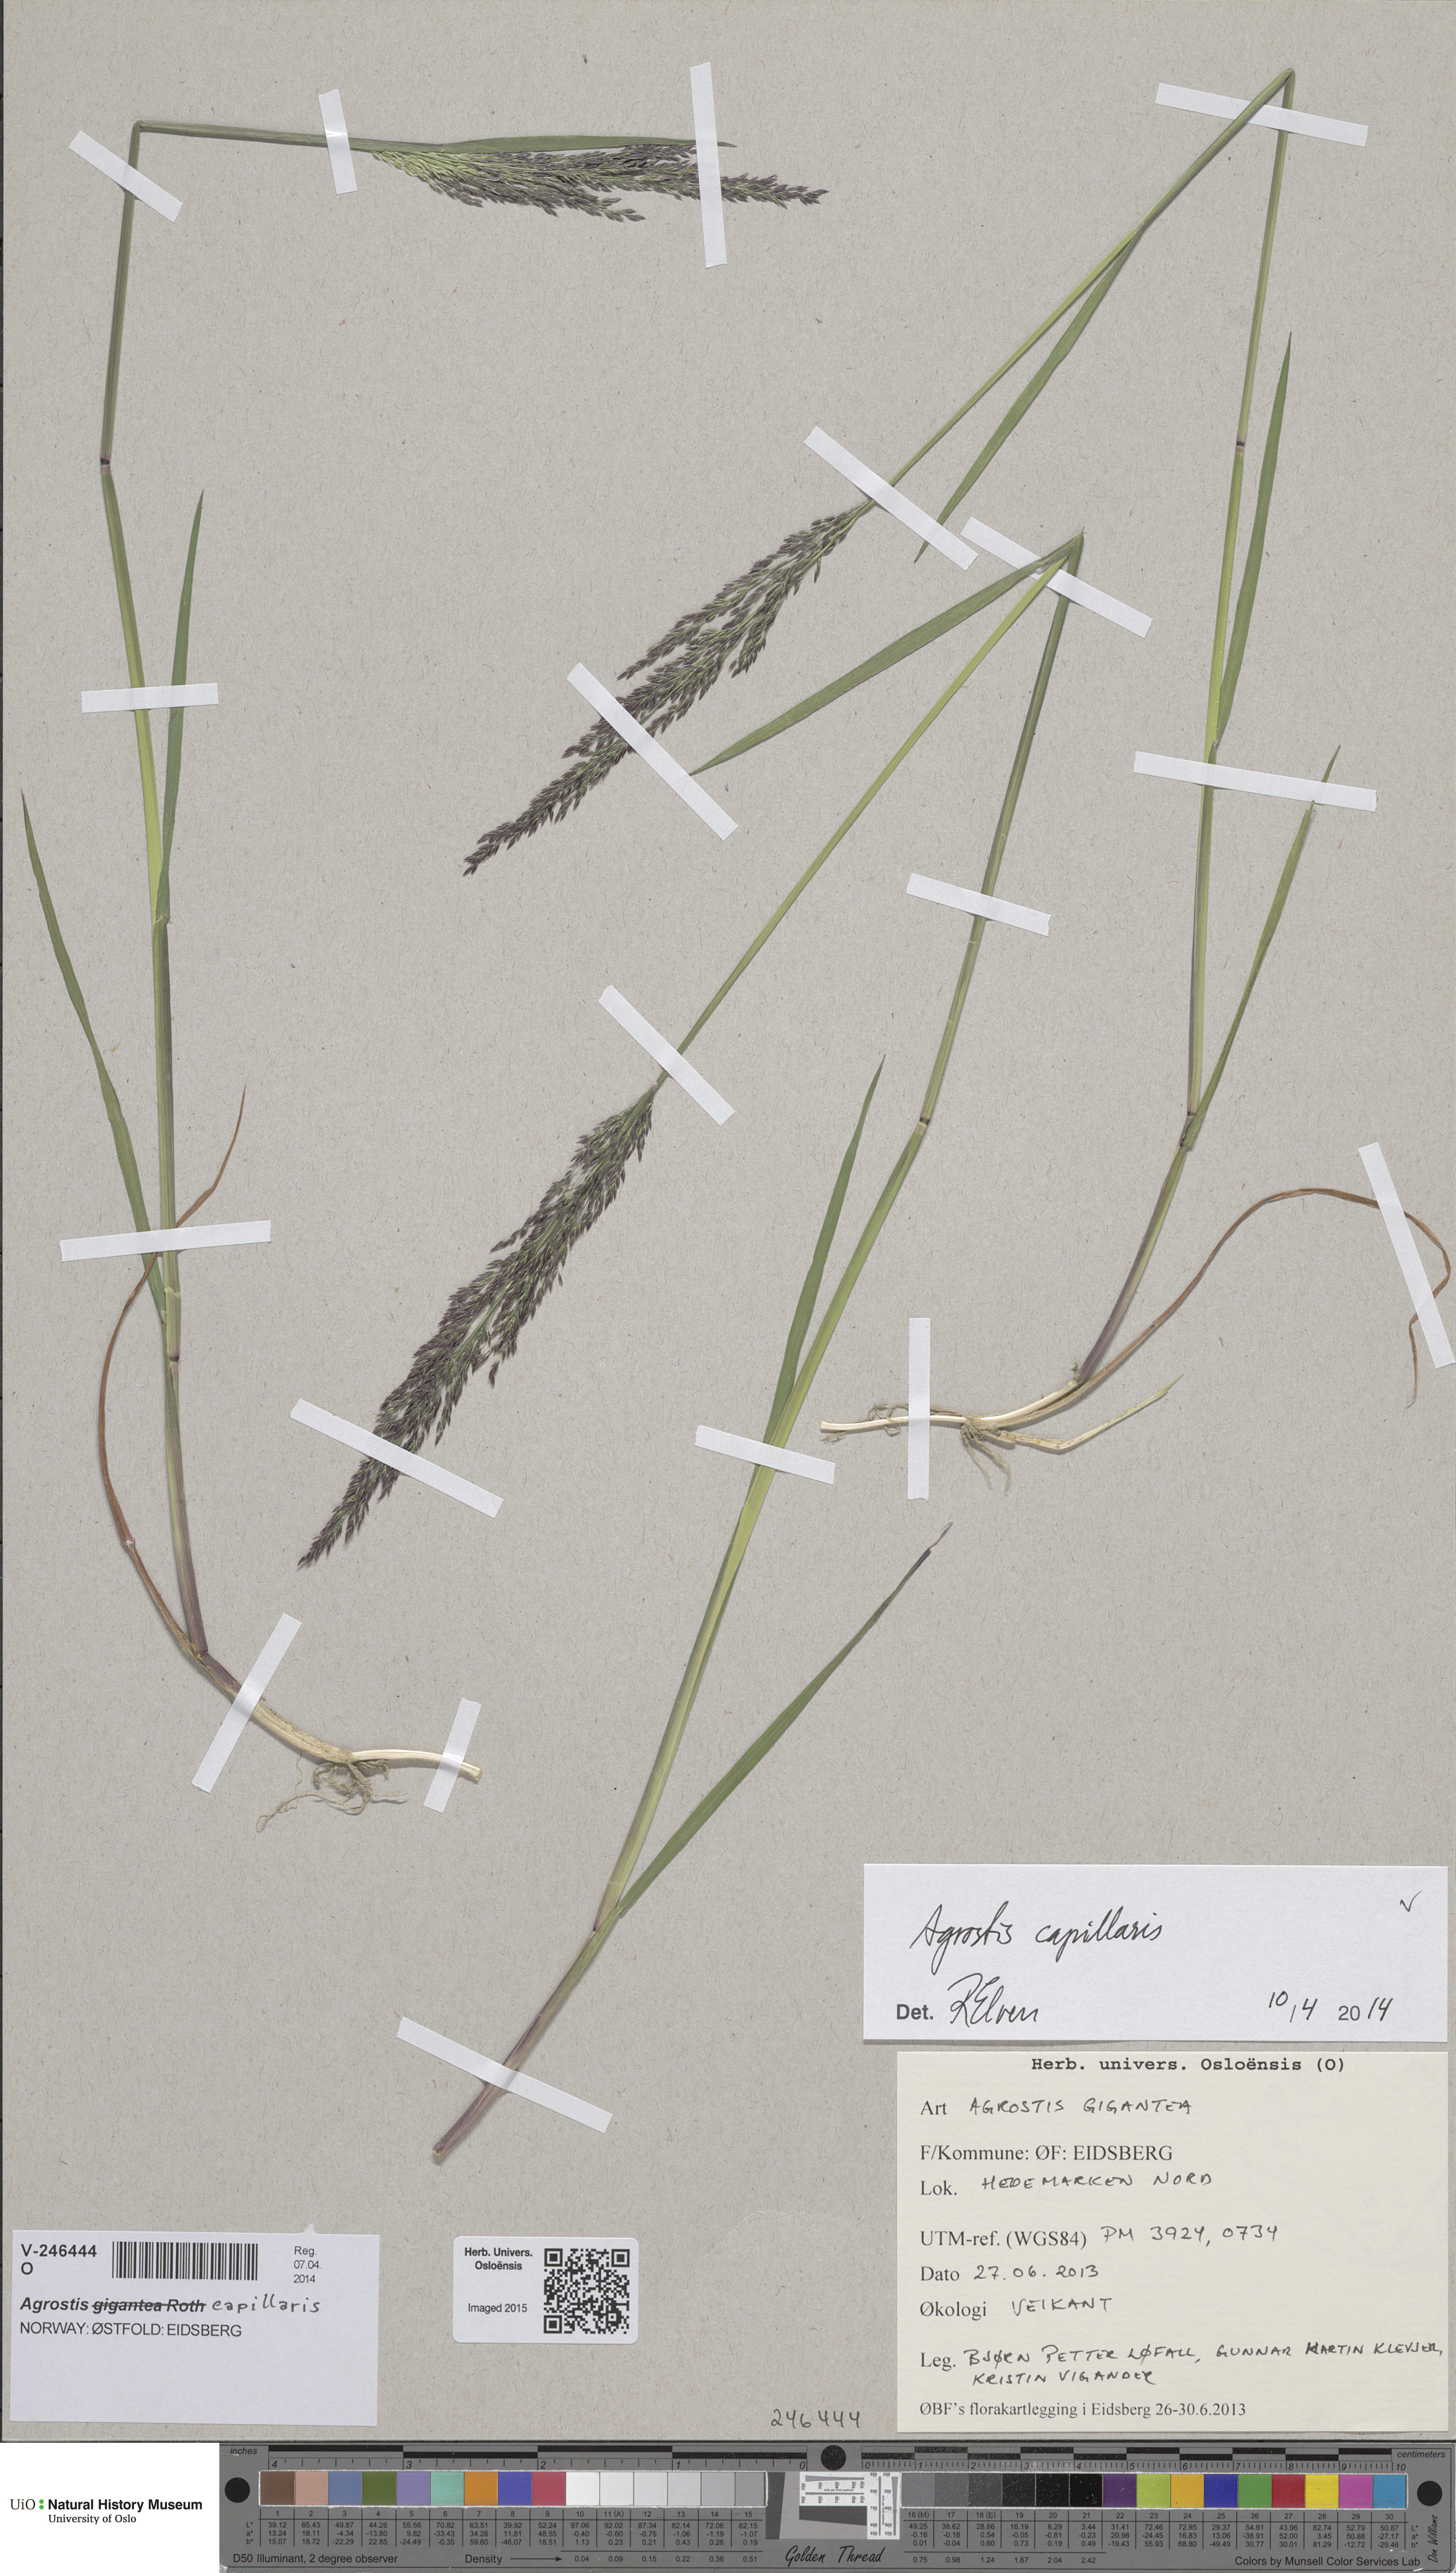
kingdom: Plantae
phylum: Tracheophyta
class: Liliopsida
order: Poales
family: Poaceae
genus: Agrostis
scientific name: Agrostis capillaris
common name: Colonial bentgrass
